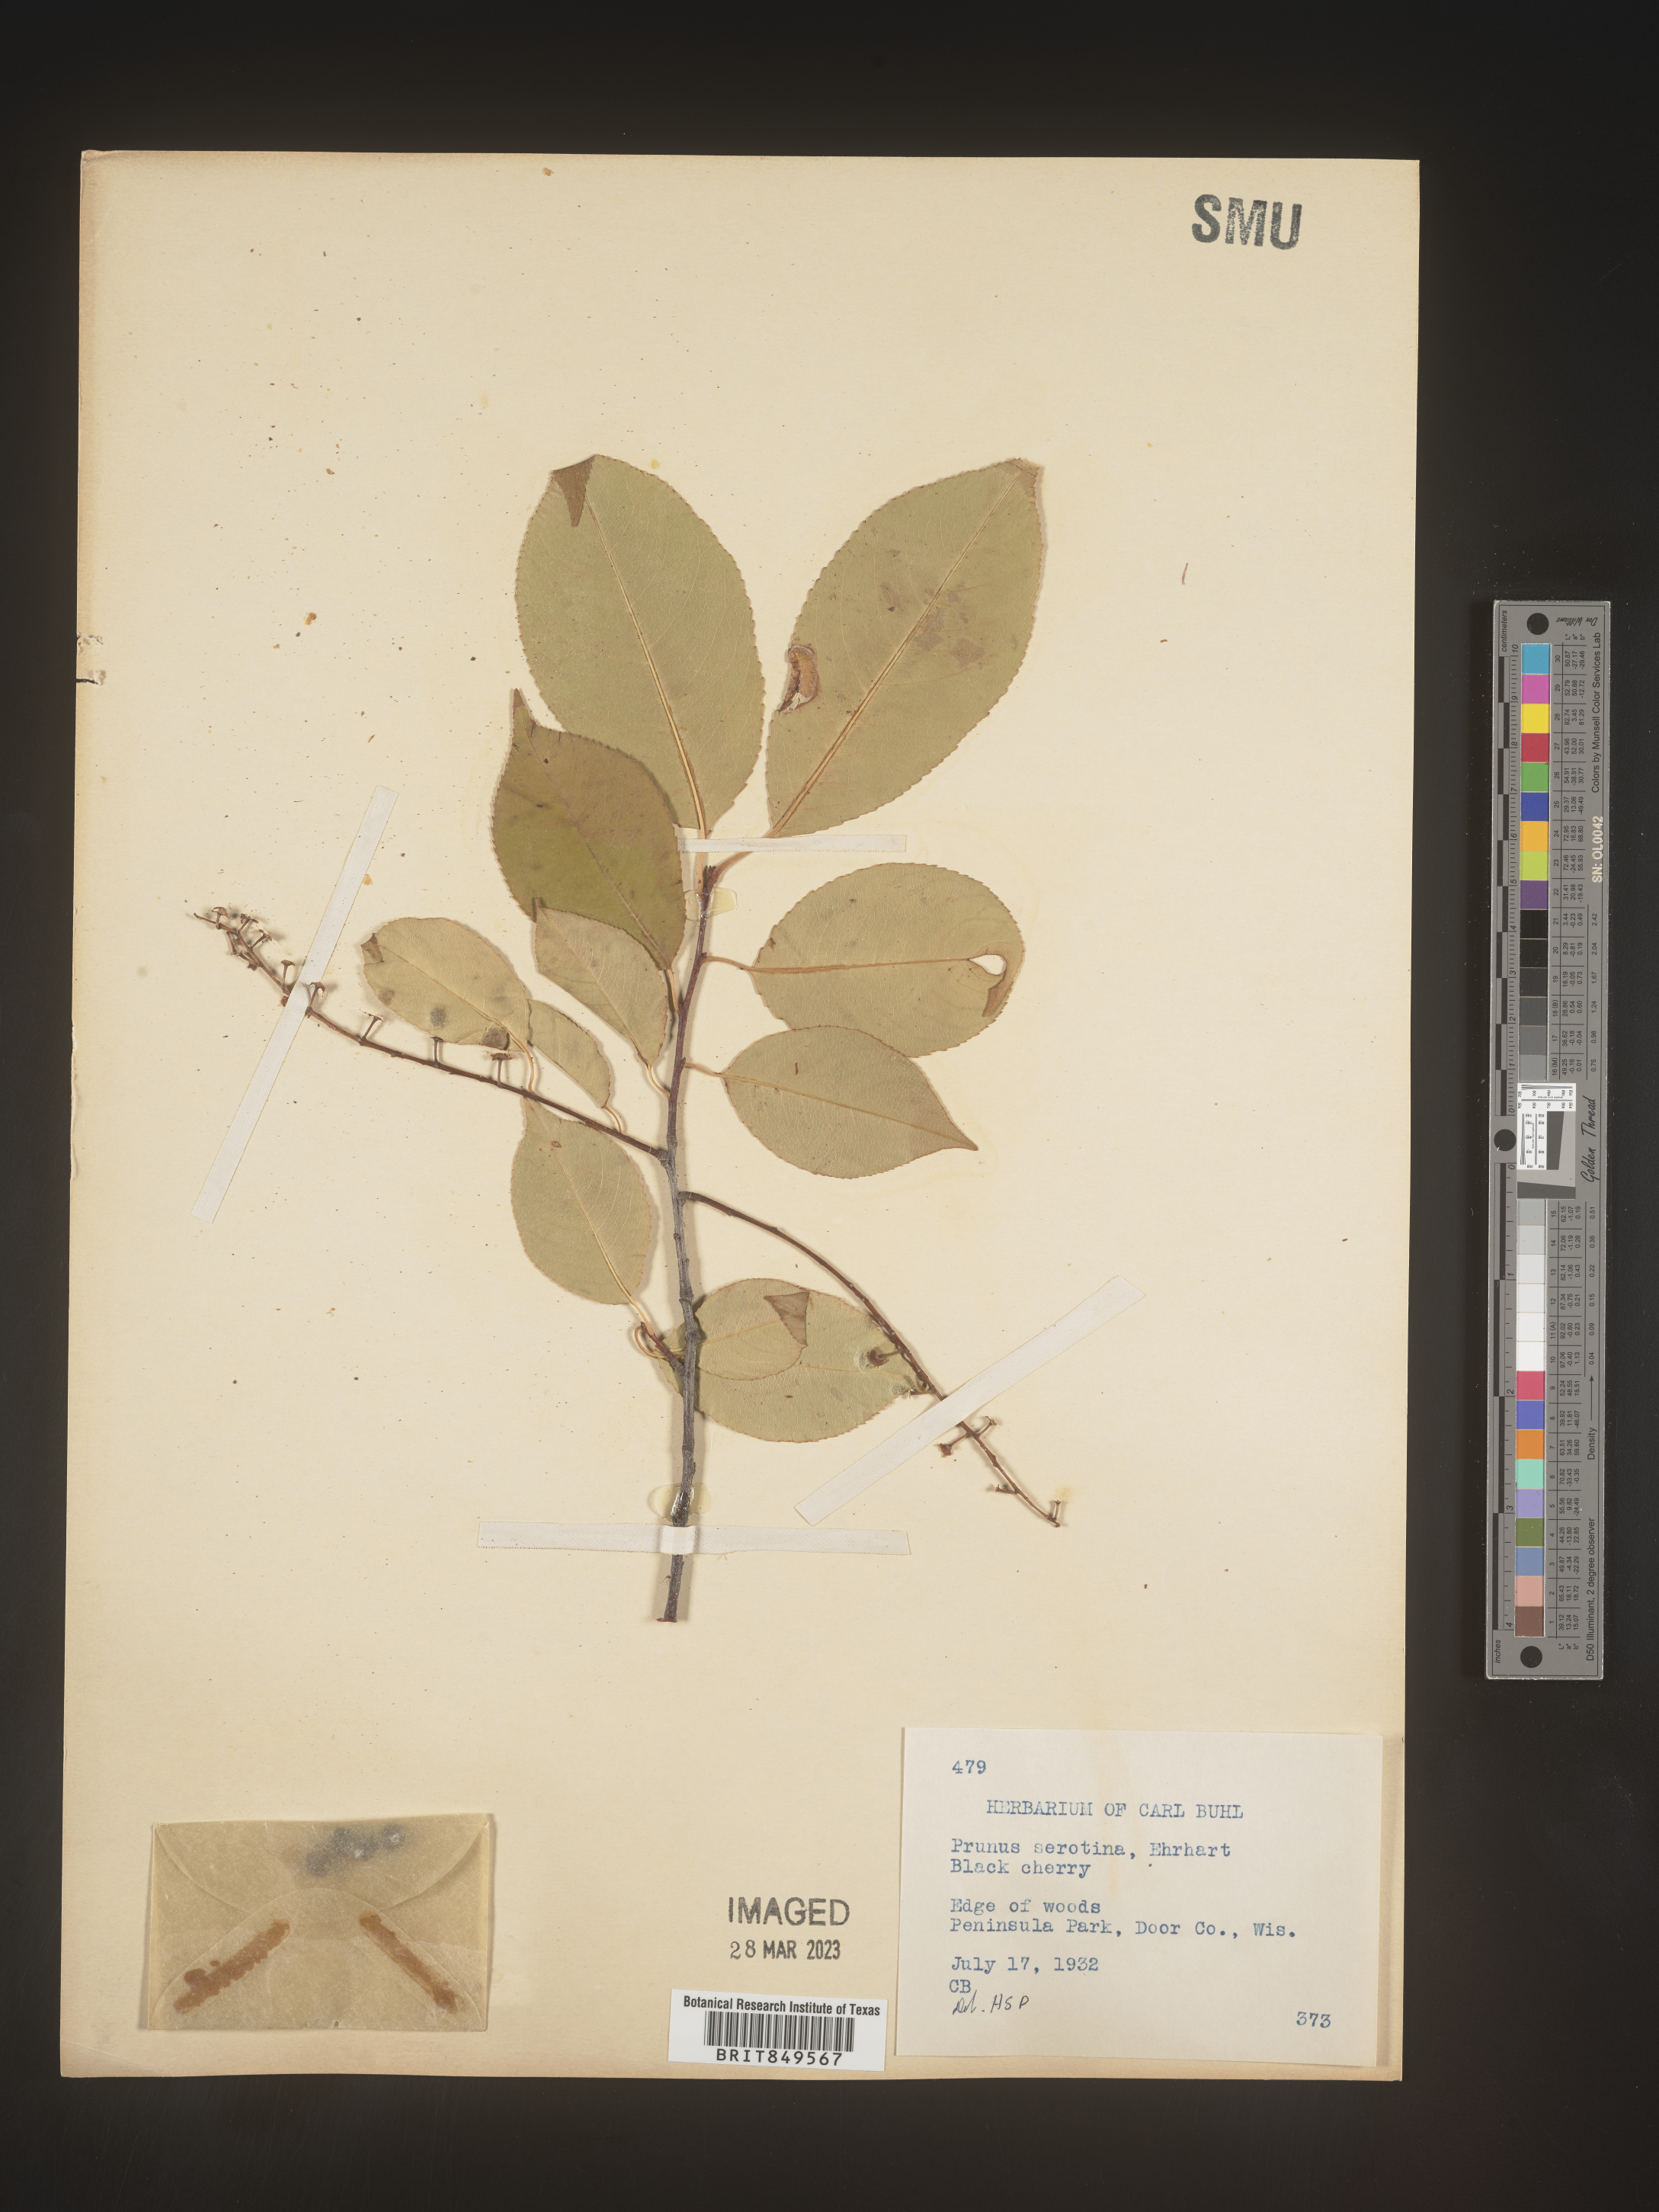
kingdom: Plantae
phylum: Tracheophyta
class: Magnoliopsida
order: Rosales
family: Rosaceae
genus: Prunus
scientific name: Prunus serotina
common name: Black cherry
